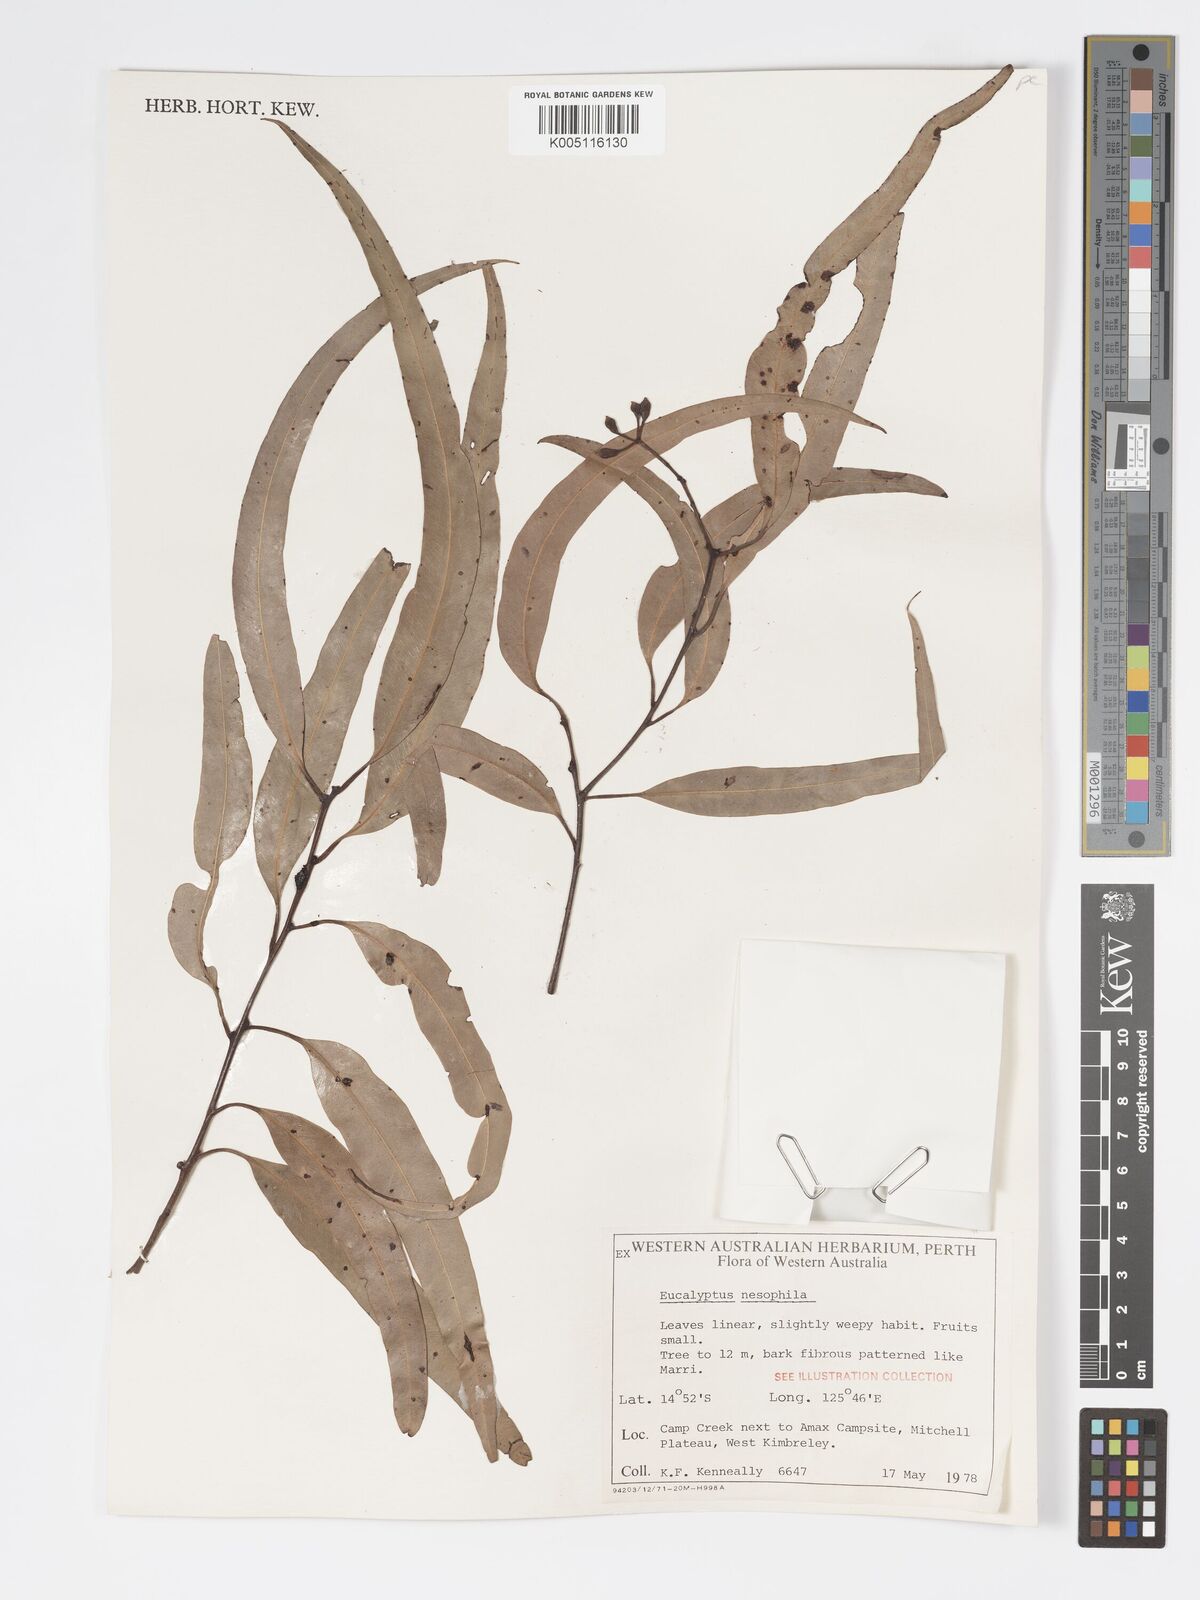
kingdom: Plantae
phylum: Tracheophyta
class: Magnoliopsida
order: Myrtales
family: Myrtaceae
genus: Corymbia
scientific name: Corymbia nesophila
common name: Melville-island-bloodwood
